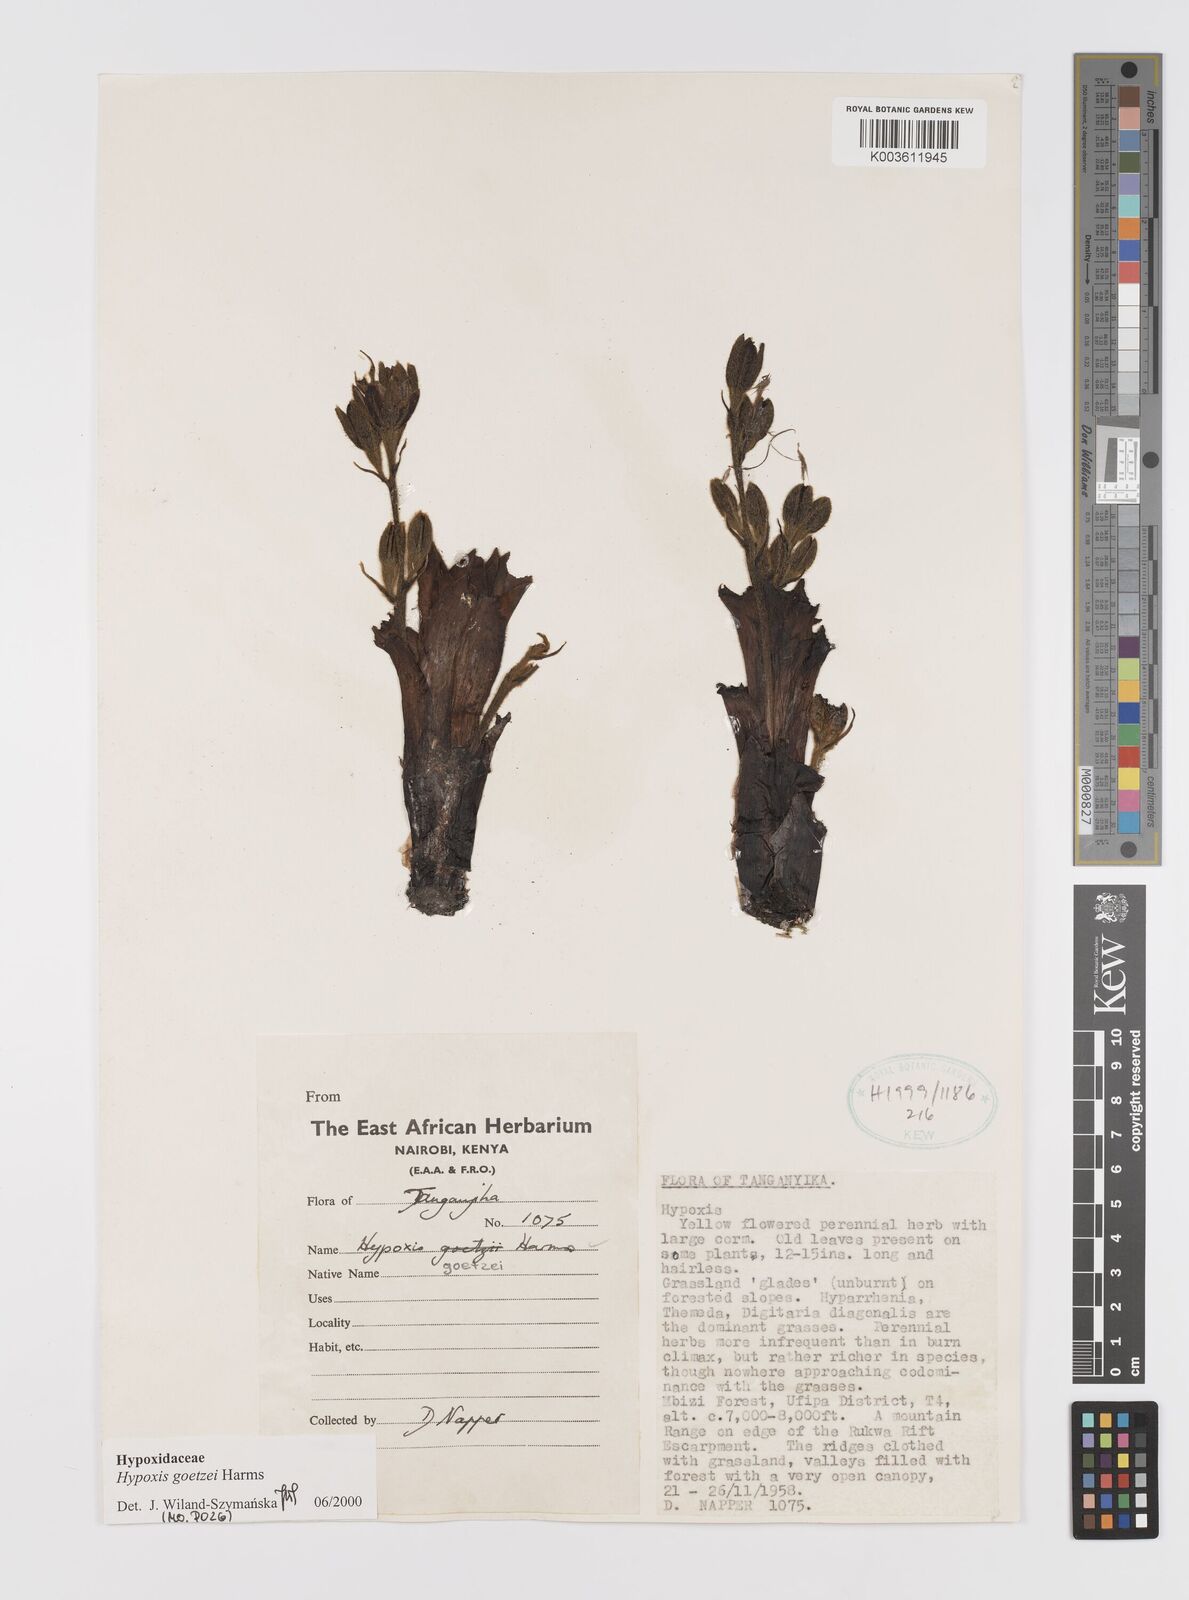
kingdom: Plantae
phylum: Tracheophyta
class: Liliopsida
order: Asparagales
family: Hypoxidaceae
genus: Hypoxis
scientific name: Hypoxis goetzei
